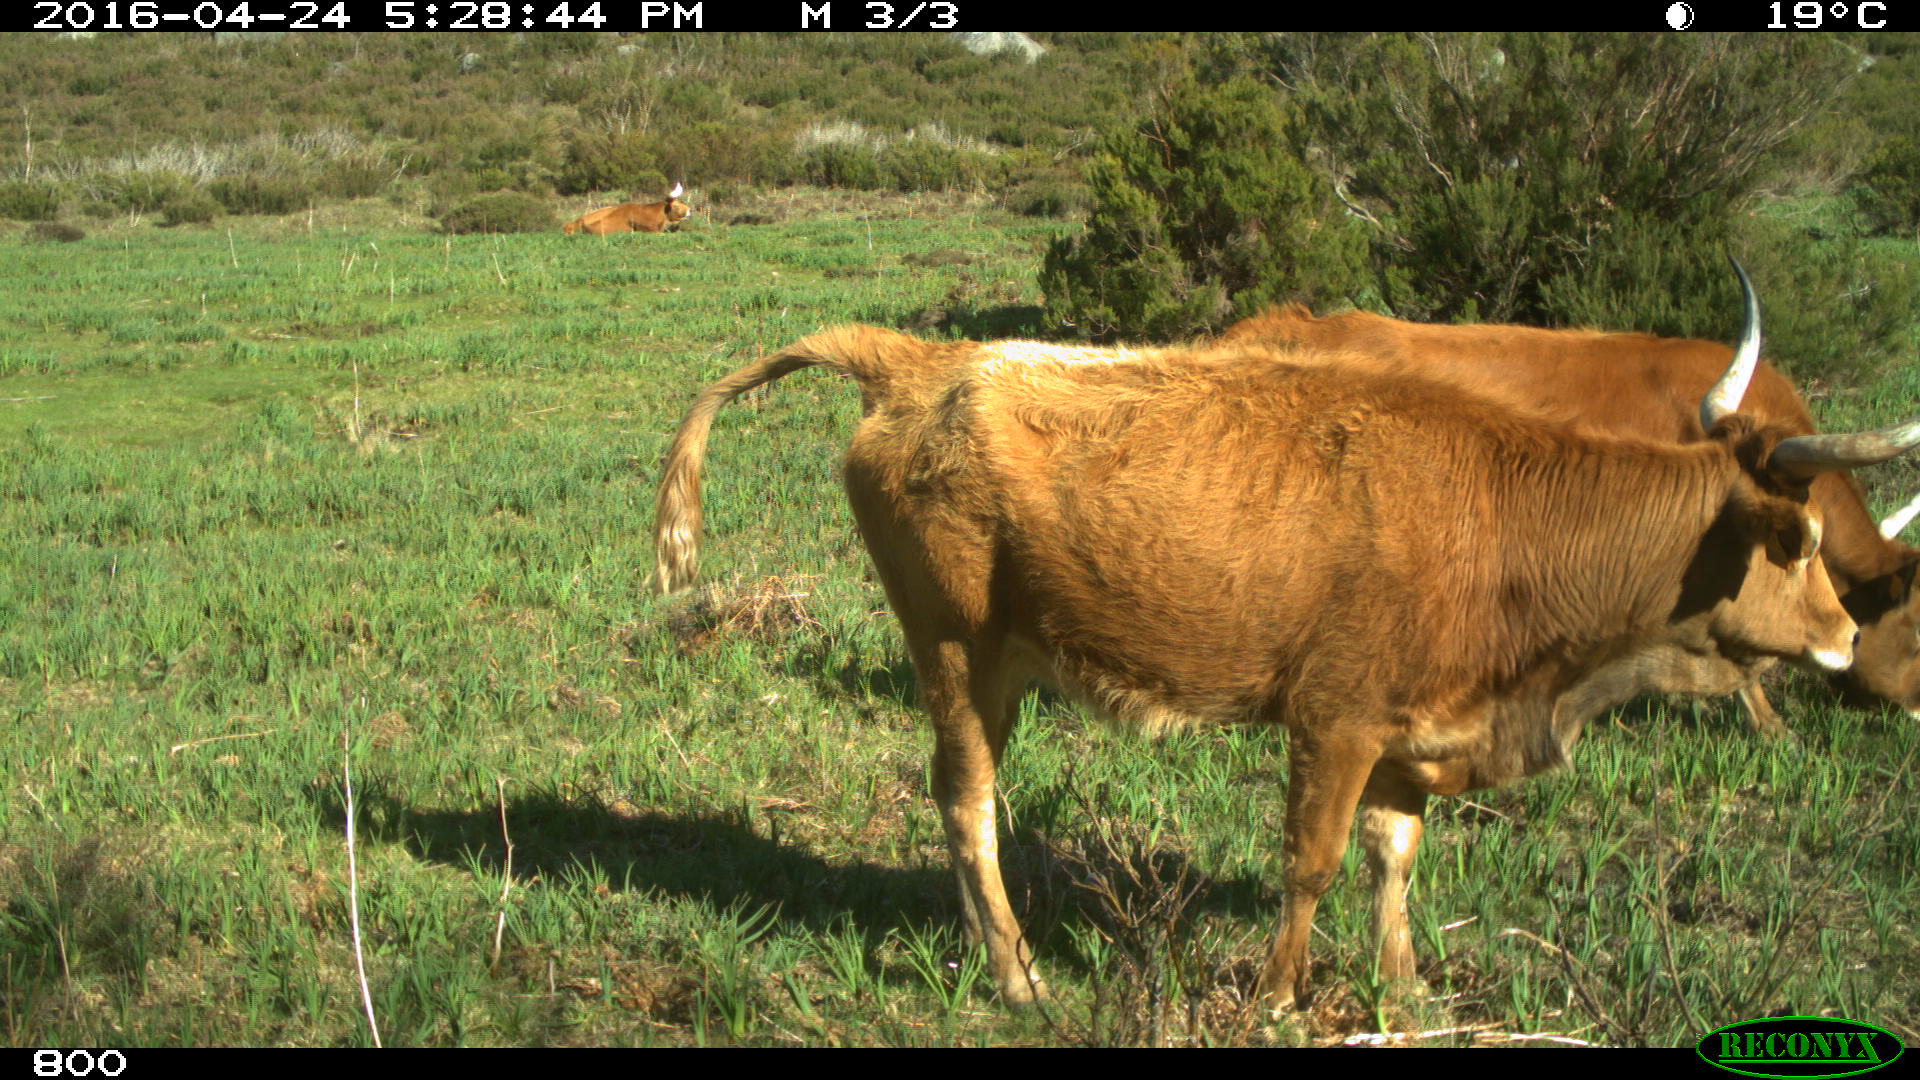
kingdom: Animalia
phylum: Chordata
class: Mammalia
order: Artiodactyla
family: Bovidae
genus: Bos
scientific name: Bos taurus
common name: Domesticated cattle
